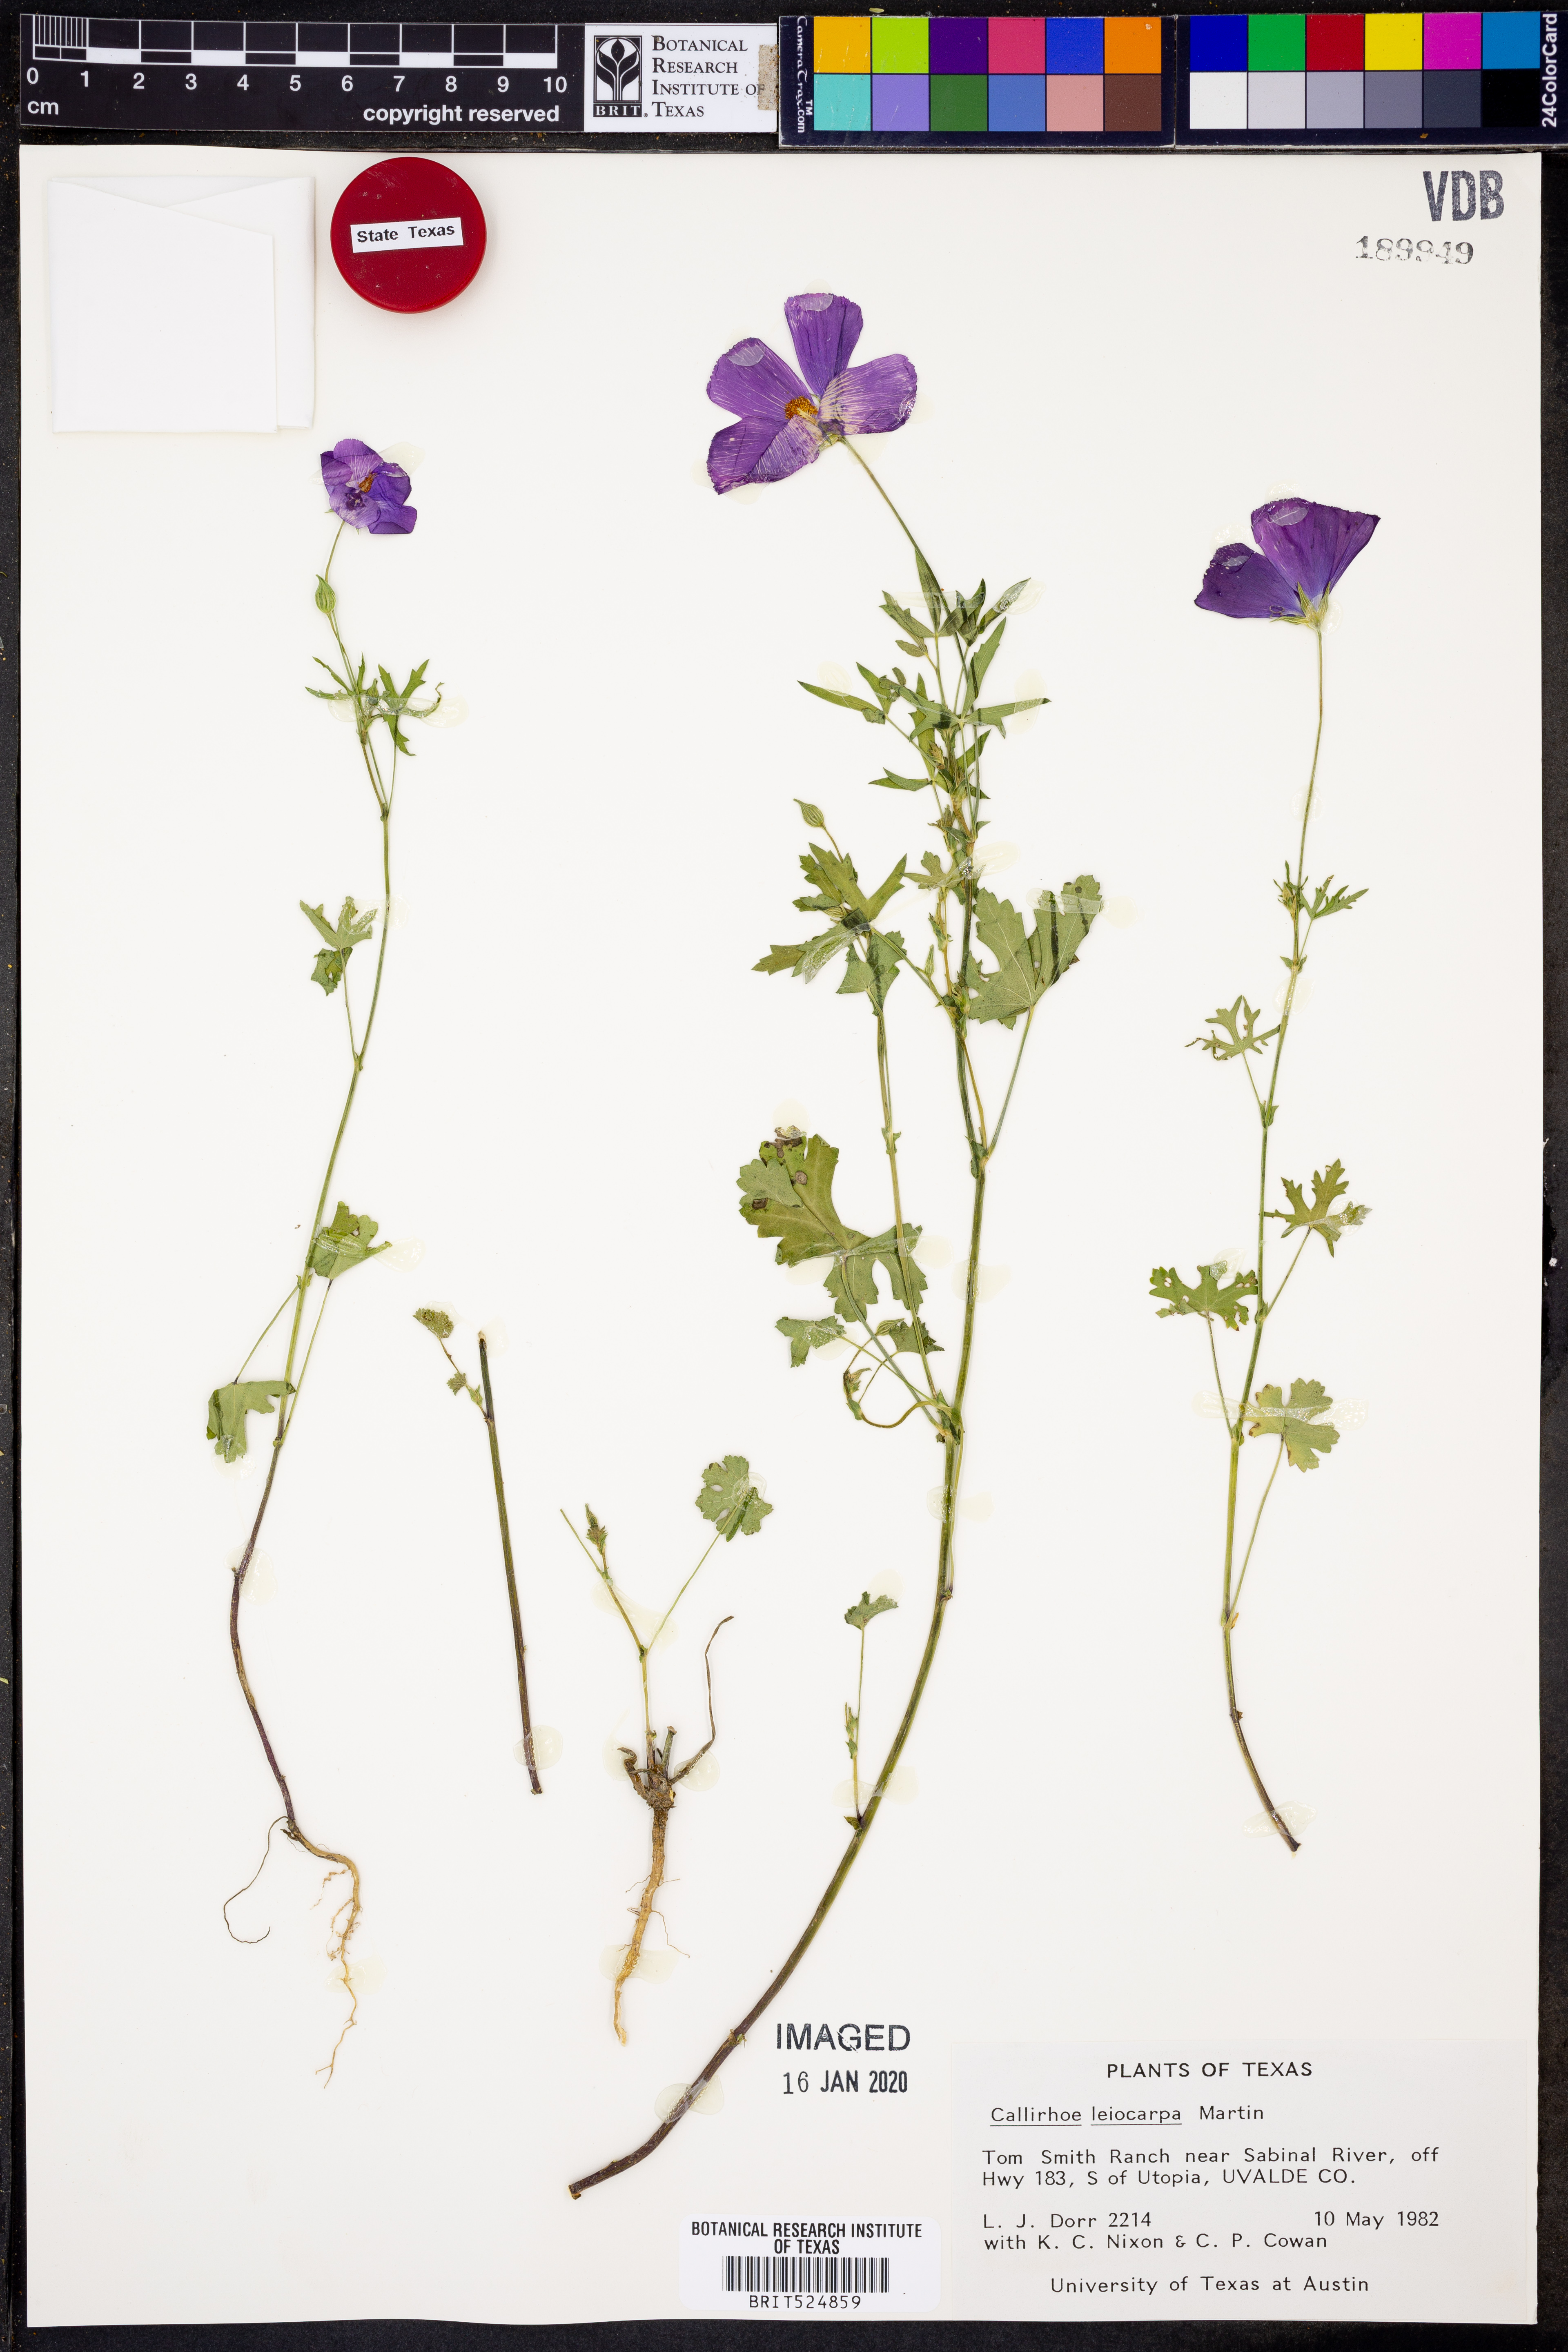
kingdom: Plantae
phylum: Tracheophyta
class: Magnoliopsida
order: Malvales
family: Malvaceae
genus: Callirhoe
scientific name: Callirhoe leiocarpa
